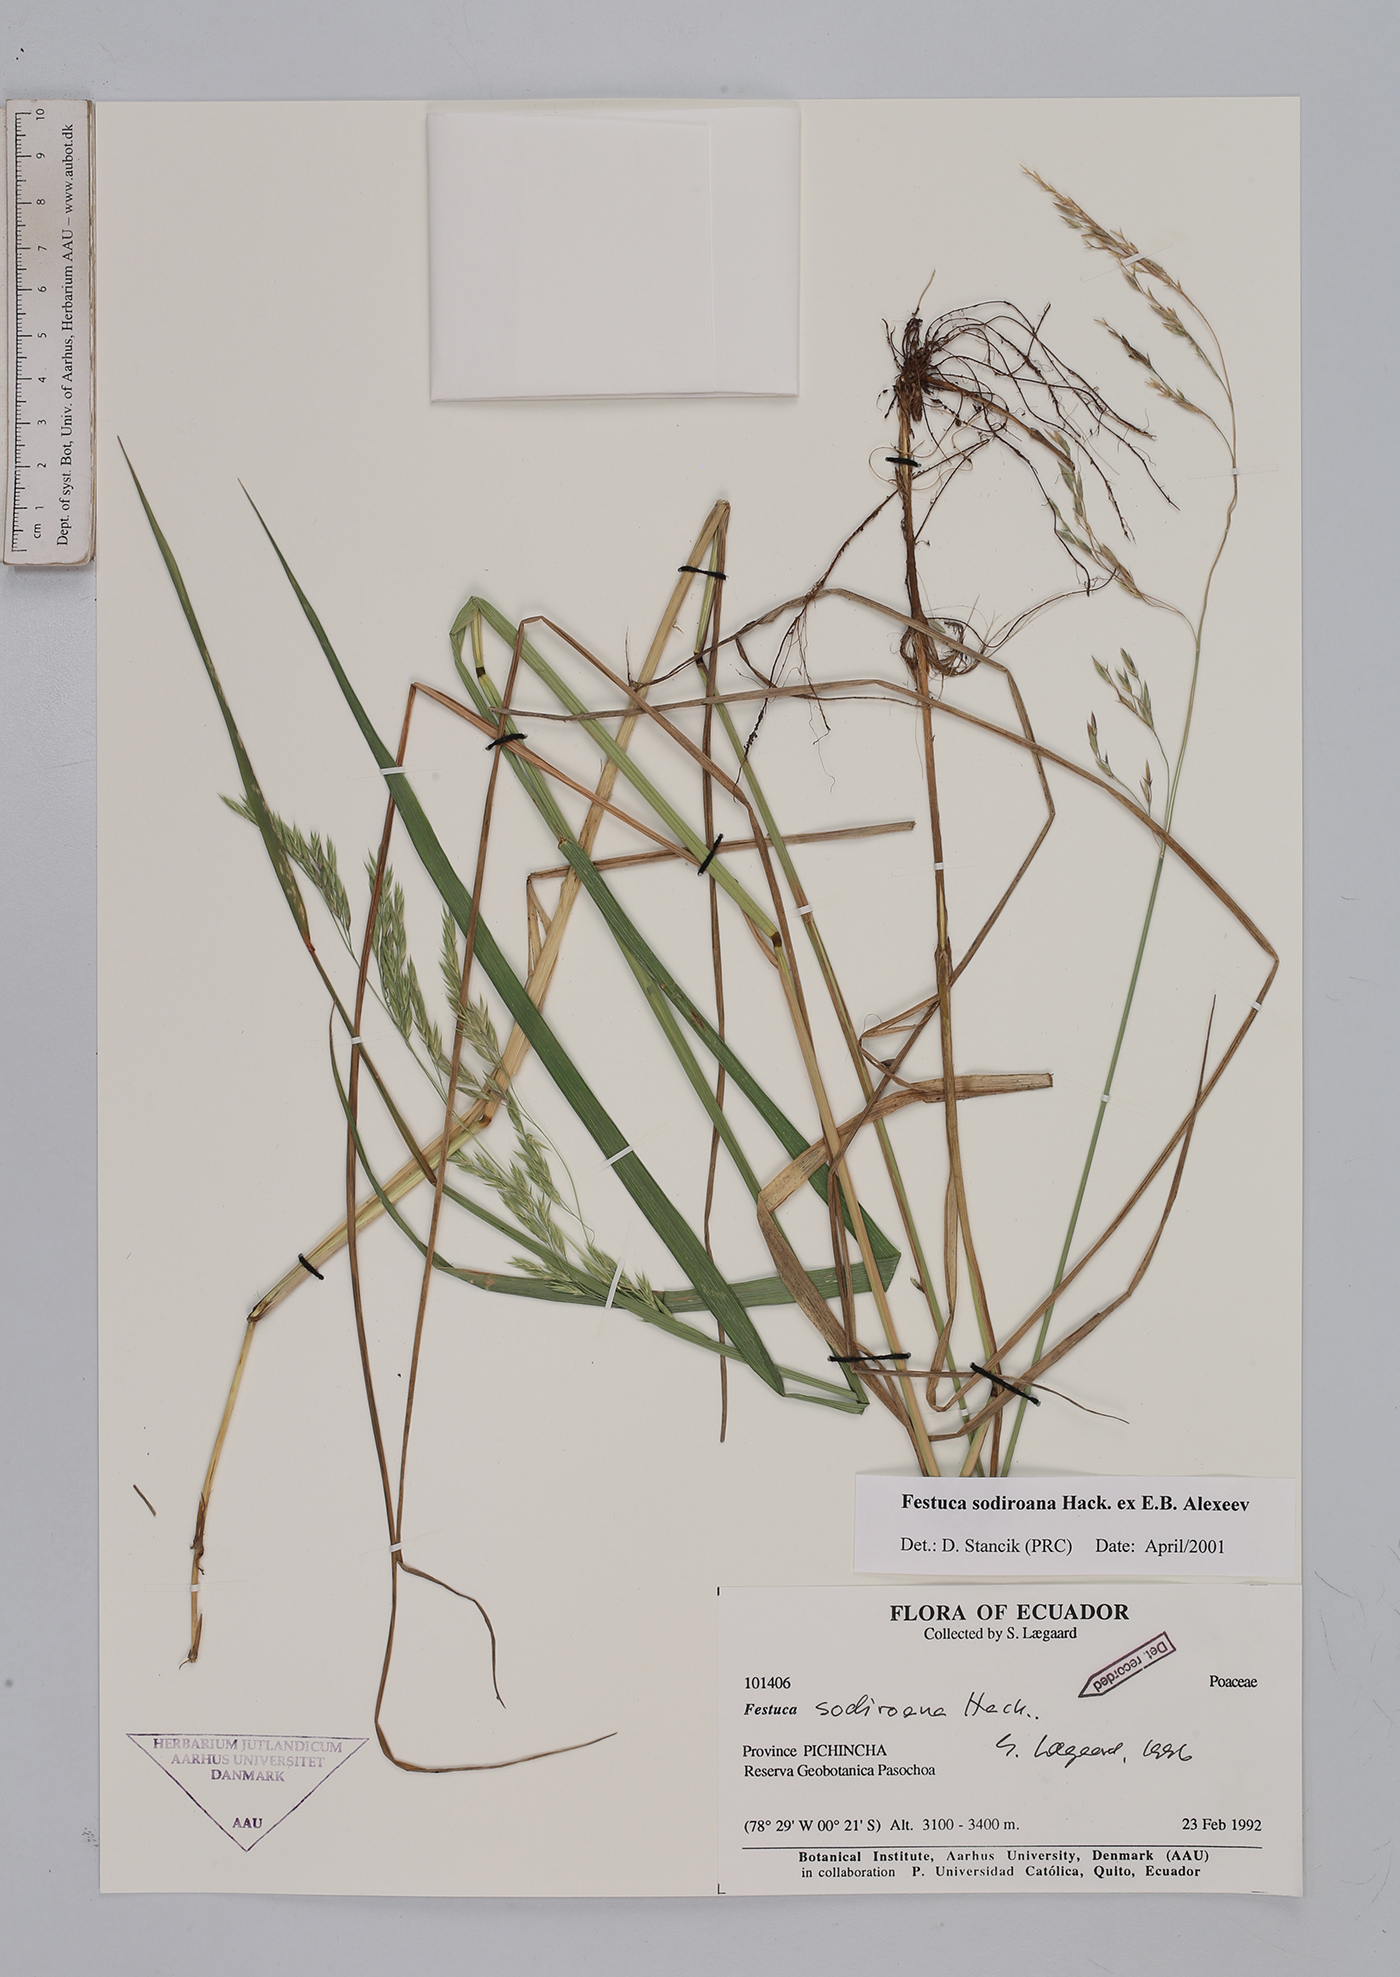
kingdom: Plantae
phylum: Tracheophyta
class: Liliopsida
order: Poales
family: Poaceae
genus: Festuca
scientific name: Festuca sodiroana
